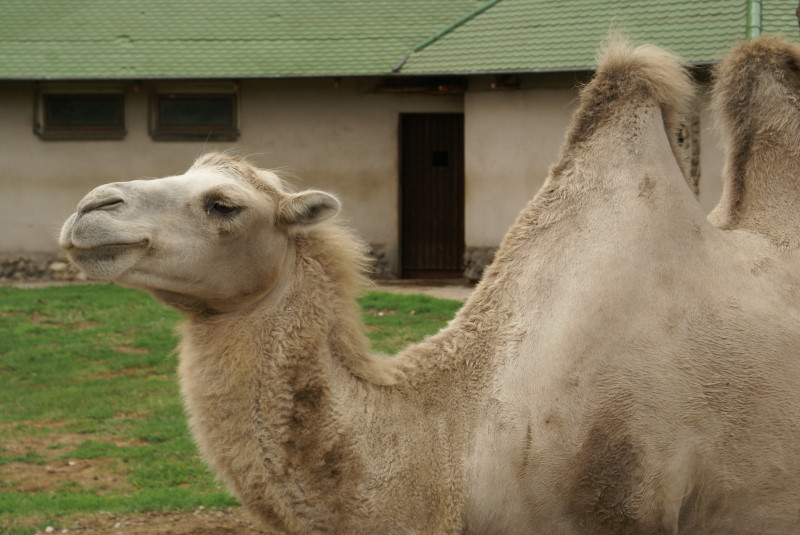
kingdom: Animalia
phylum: Chordata
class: Mammalia
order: Artiodactyla
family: Camelidae
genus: Camelus
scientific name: Camelus bactrianus
